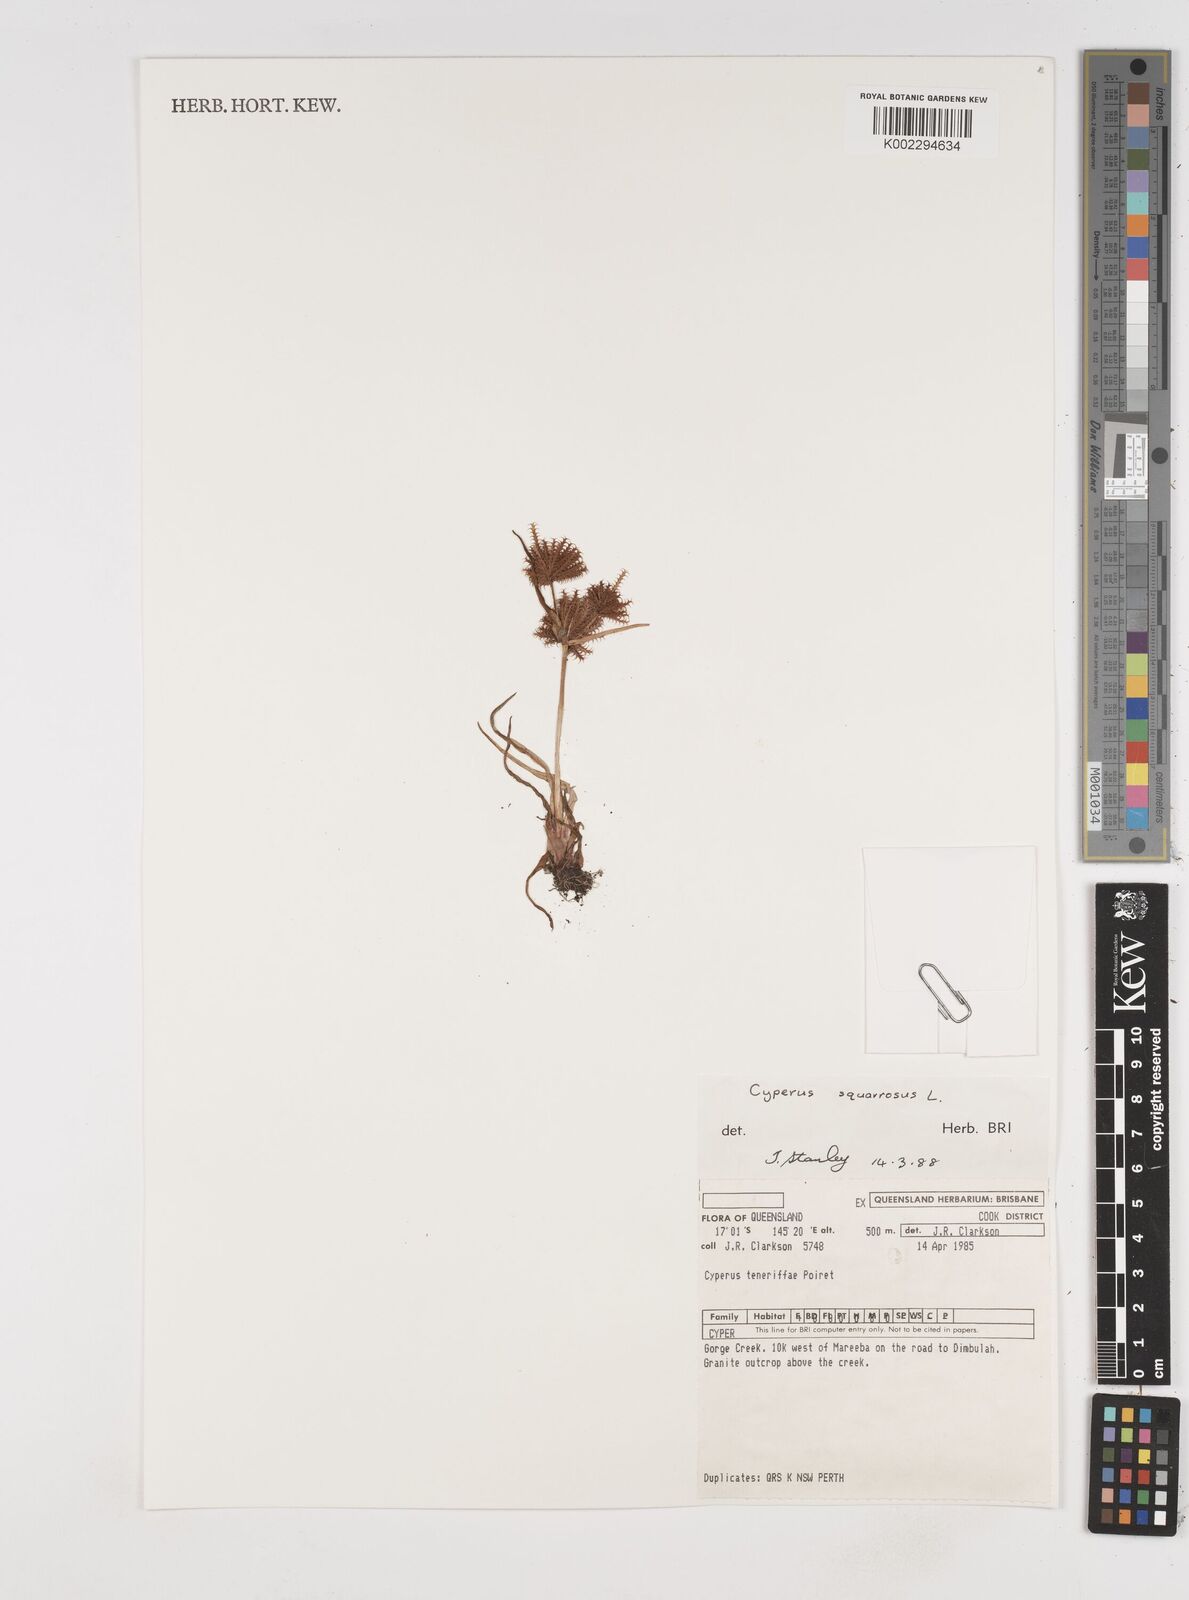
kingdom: Plantae
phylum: Tracheophyta
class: Liliopsida
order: Poales
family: Cyperaceae
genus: Cyperus
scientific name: Cyperus squarrosus
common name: Awned cyperus
